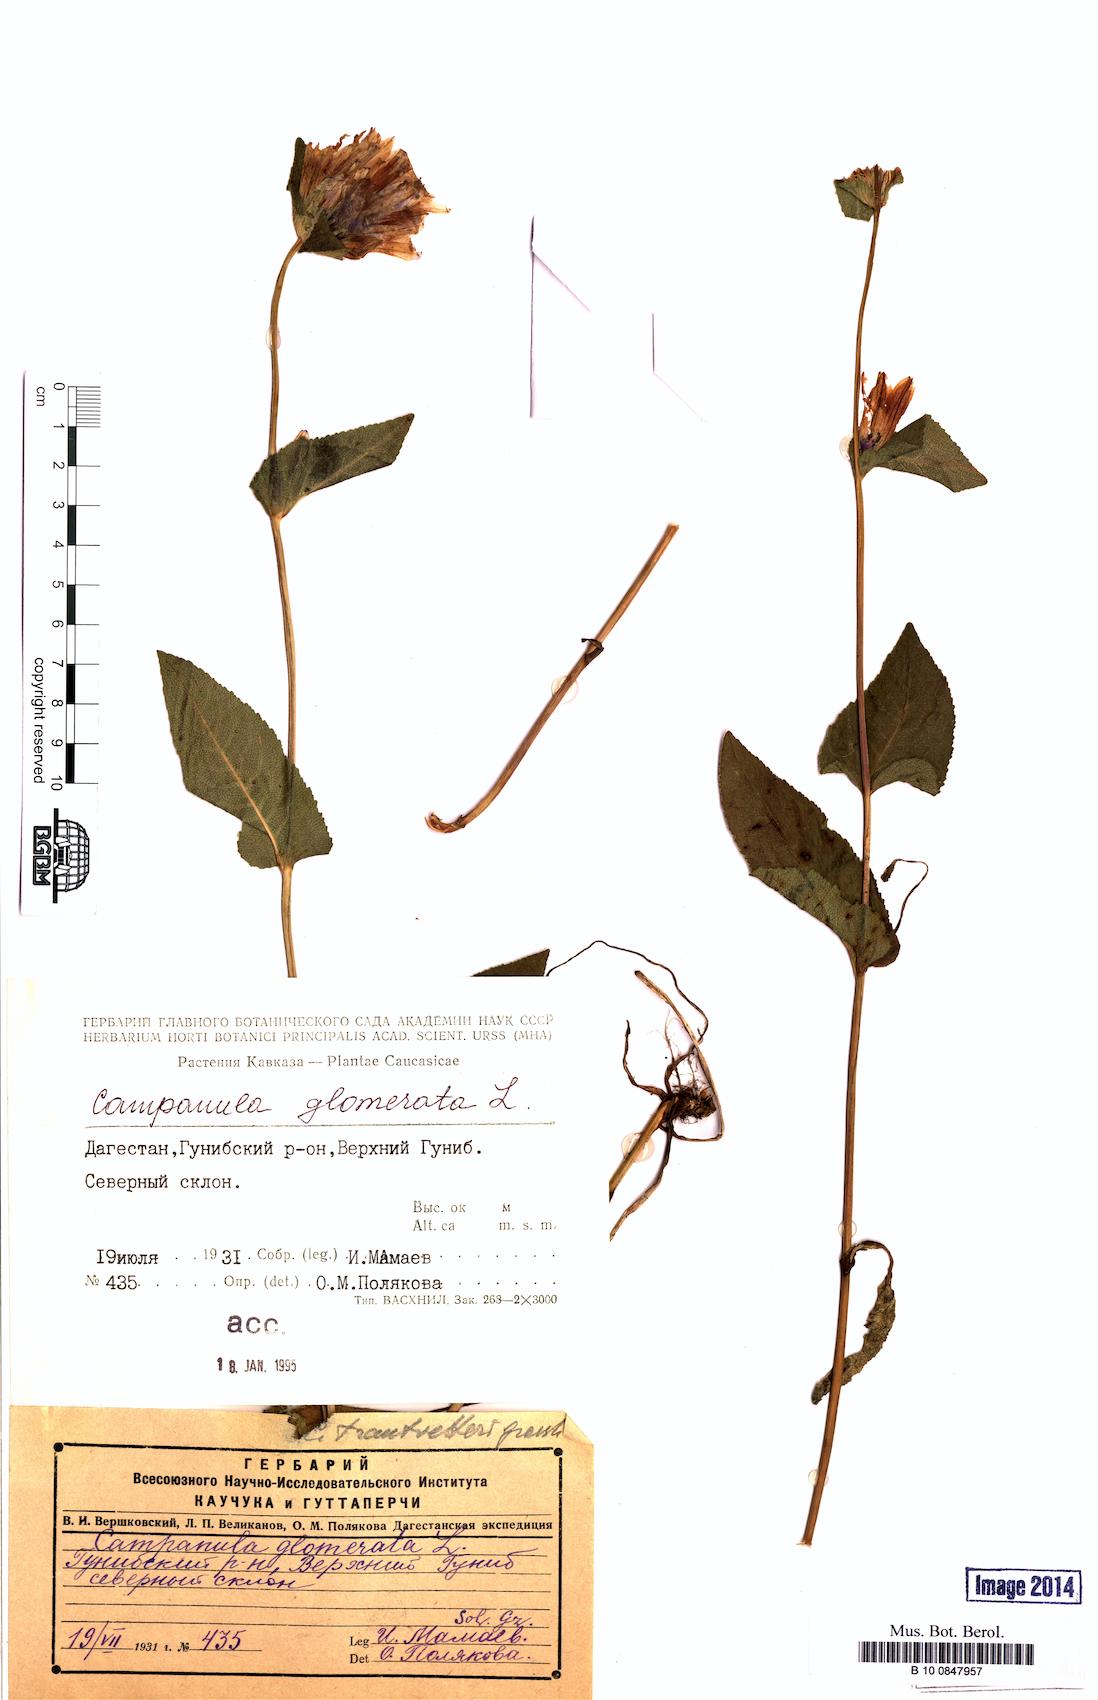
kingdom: Plantae
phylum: Tracheophyta
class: Magnoliopsida
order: Asterales
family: Campanulaceae
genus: Campanula
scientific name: Campanula glomerata
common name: Clustered bellflower
